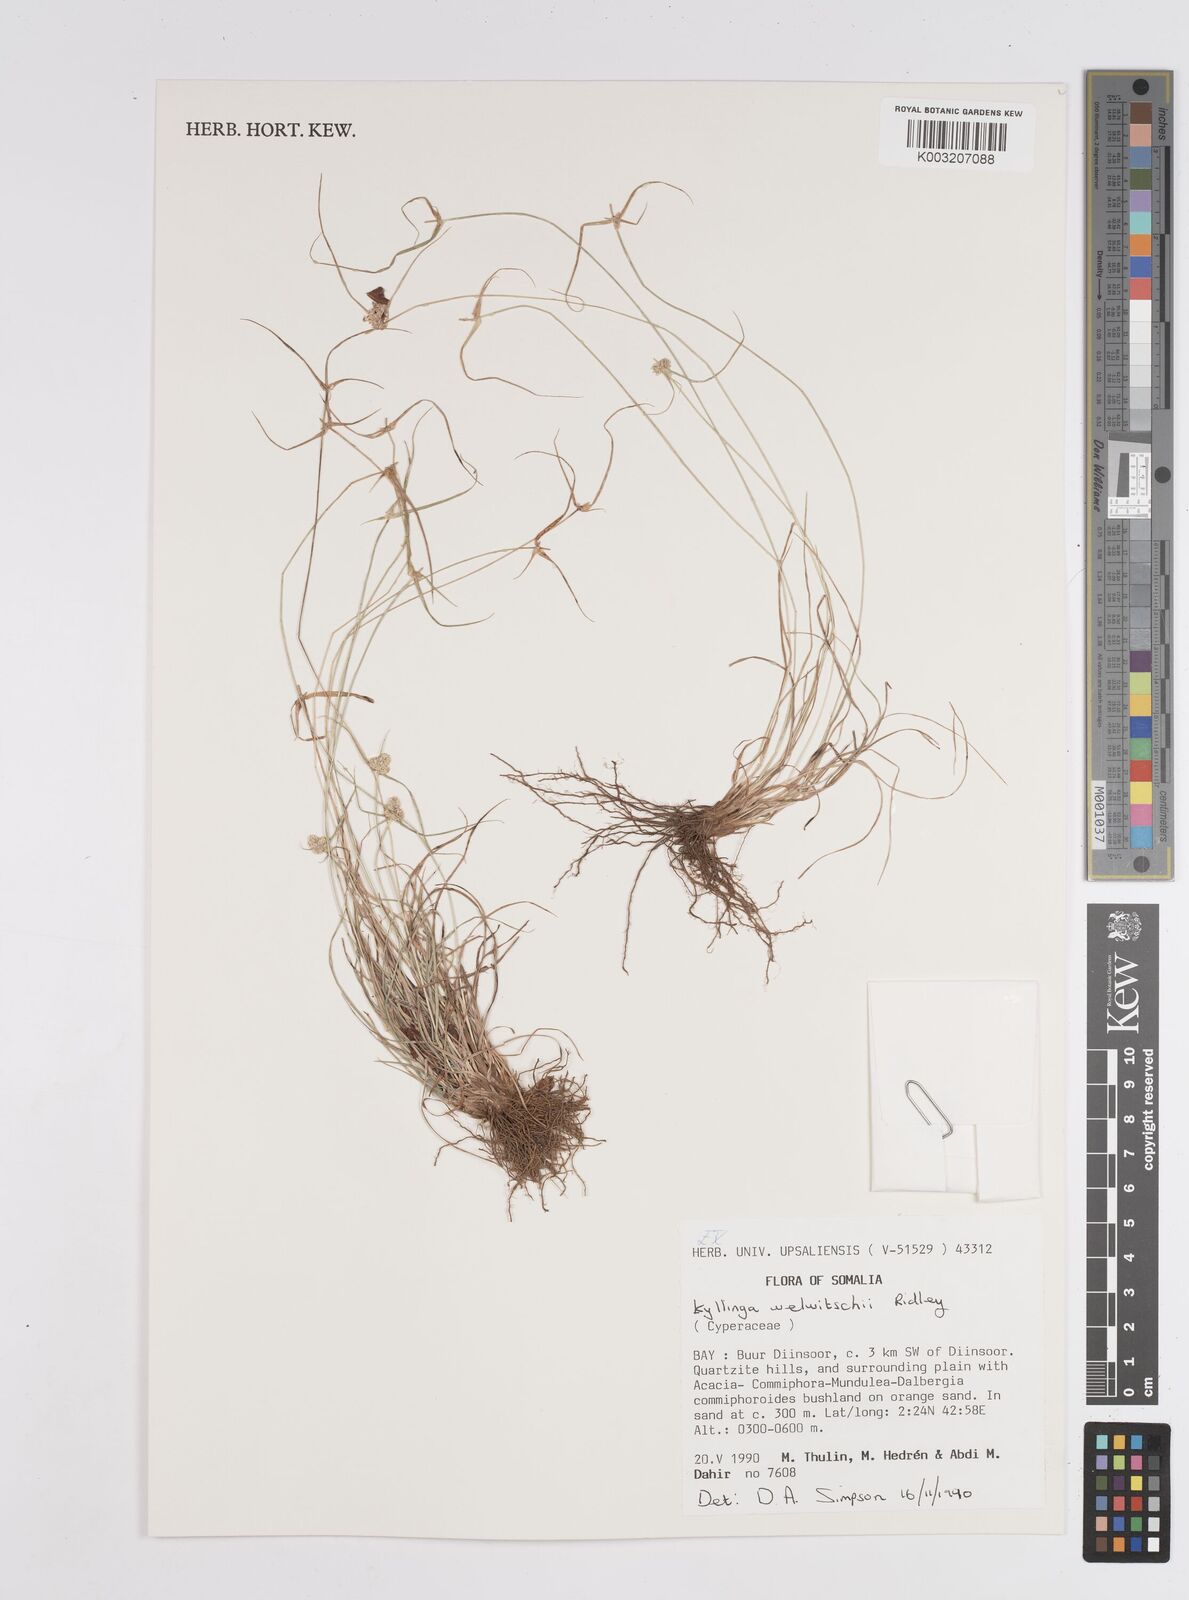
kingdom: Plantae
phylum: Tracheophyta
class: Liliopsida
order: Poales
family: Cyperaceae
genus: Cyperus
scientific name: Cyperus welwitschii
